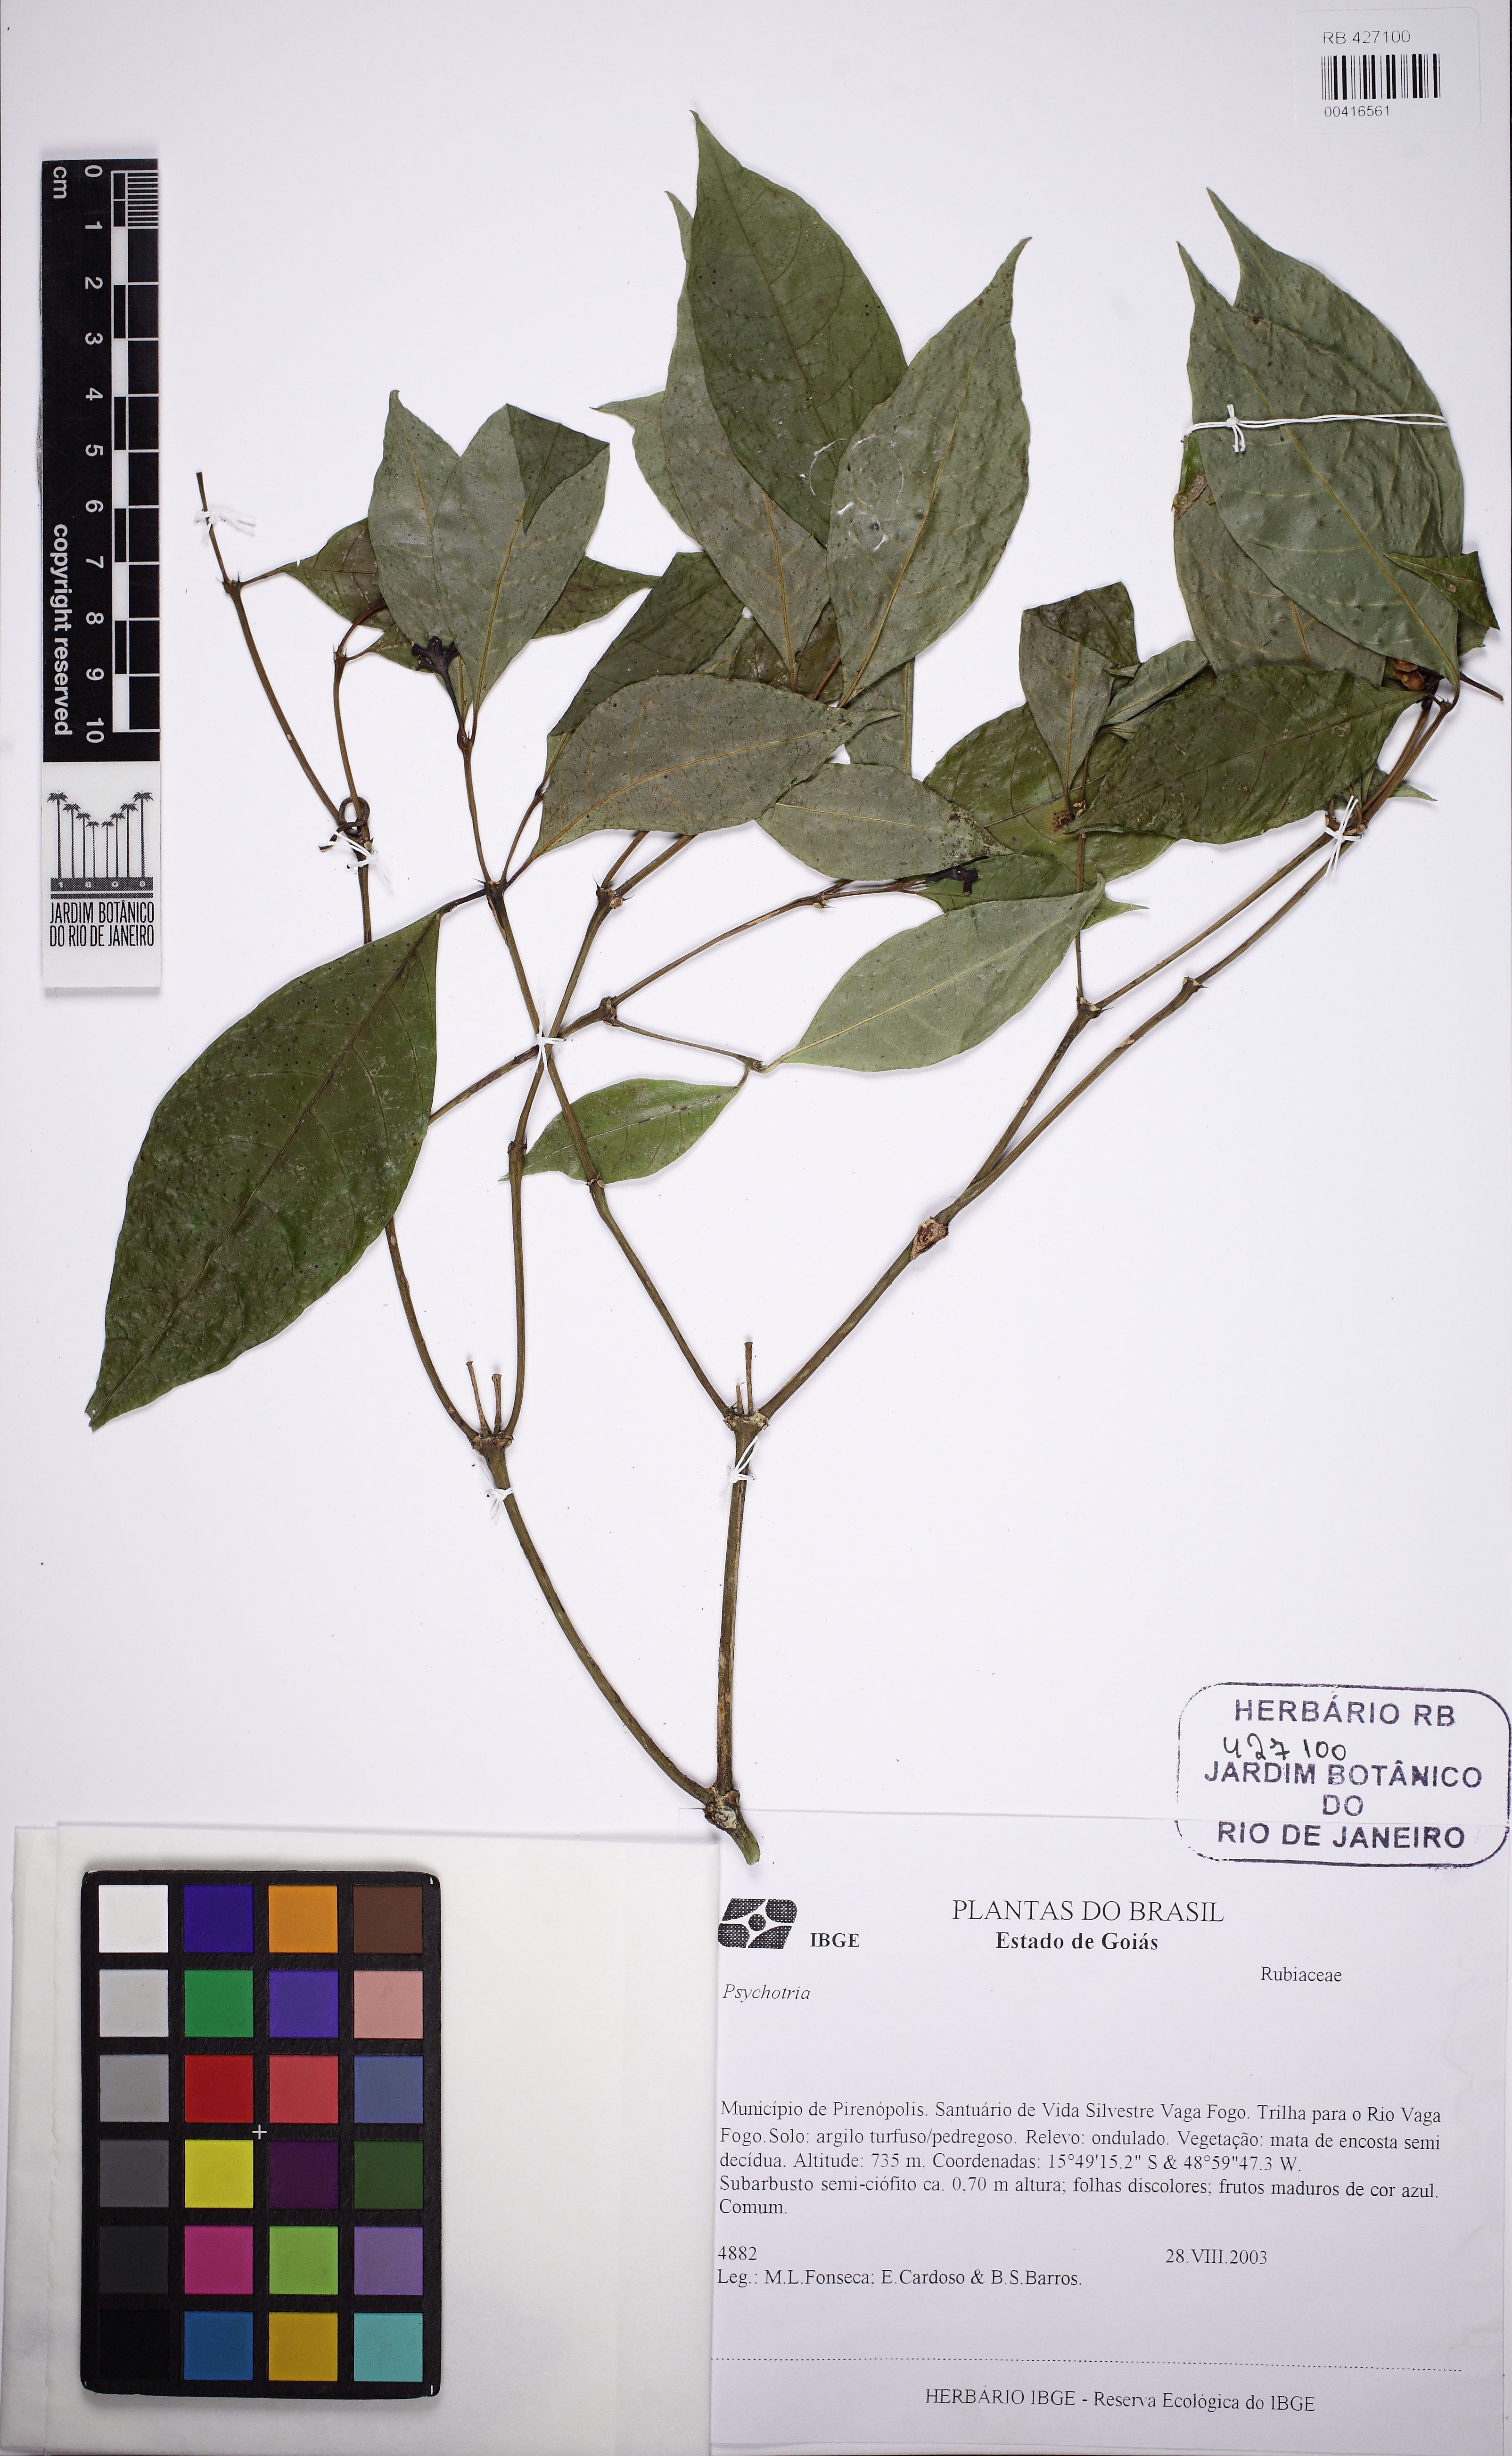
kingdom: Plantae
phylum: Tracheophyta
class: Magnoliopsida
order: Gentianales
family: Rubiaceae
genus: Psychotria
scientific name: Psychotria bahiensis
